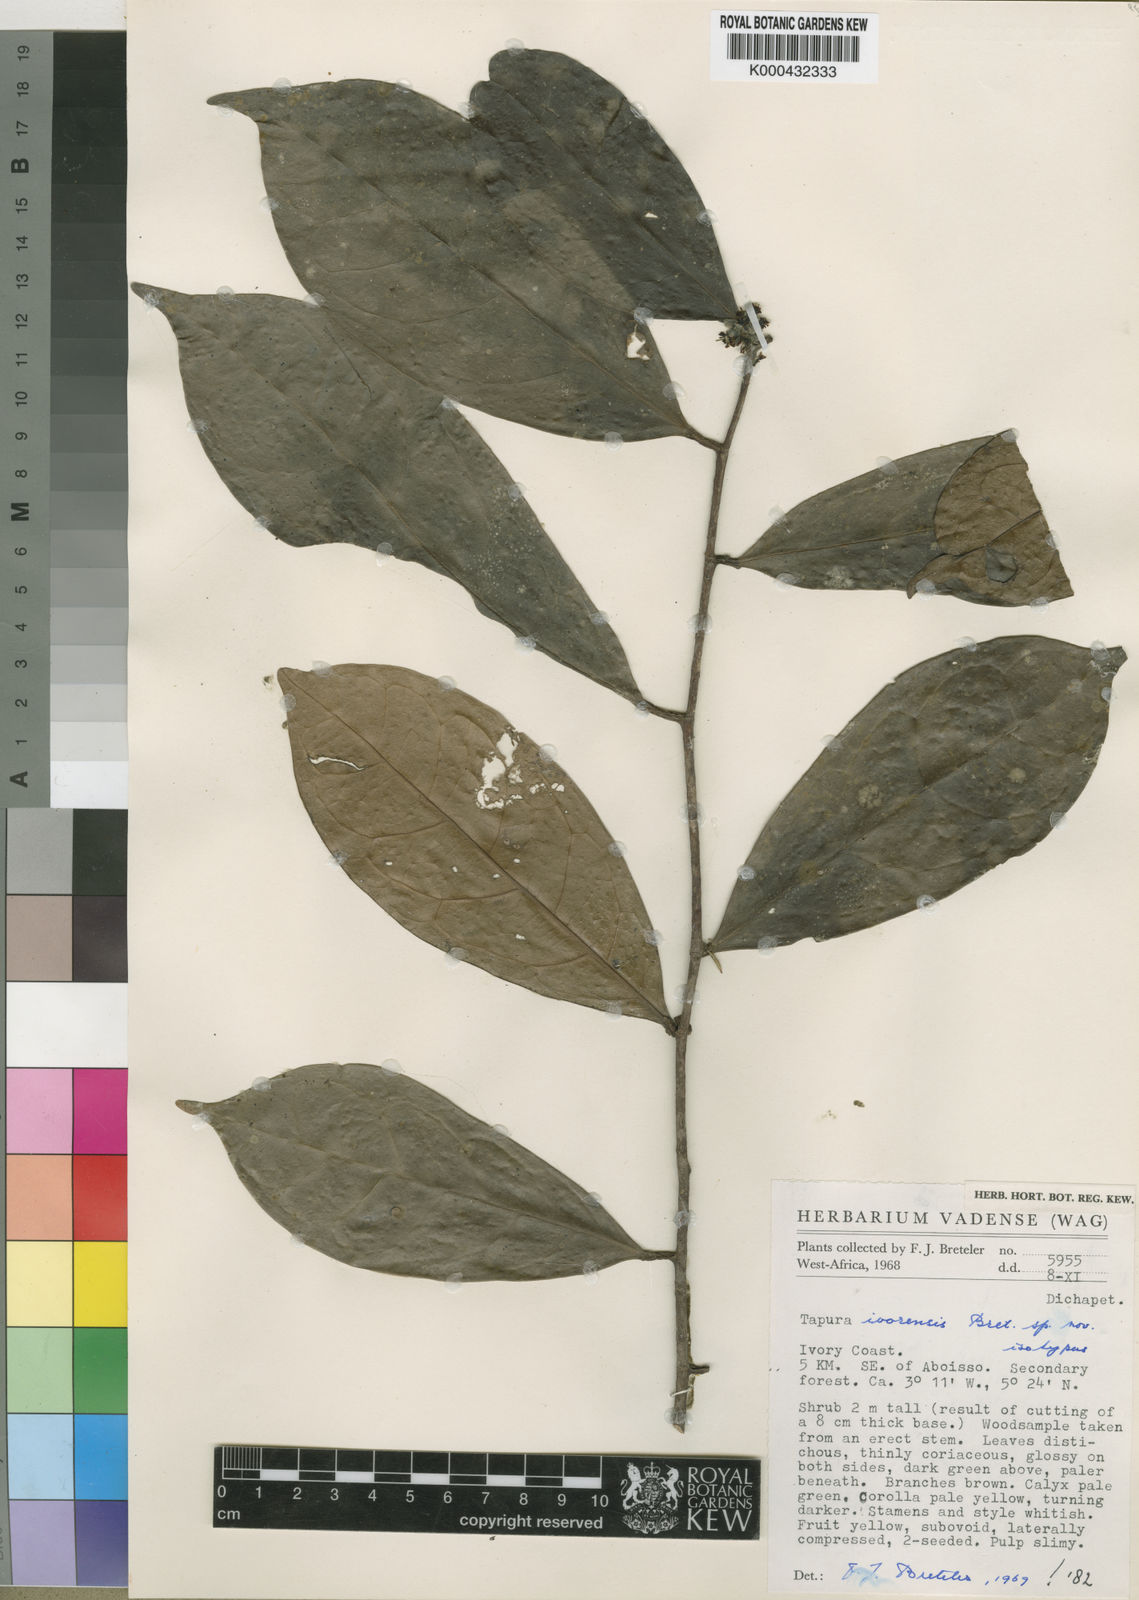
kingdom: Plantae
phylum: Tracheophyta
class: Magnoliopsida
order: Malpighiales
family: Dichapetalaceae
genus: Tapura
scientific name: Tapura ivorensis
